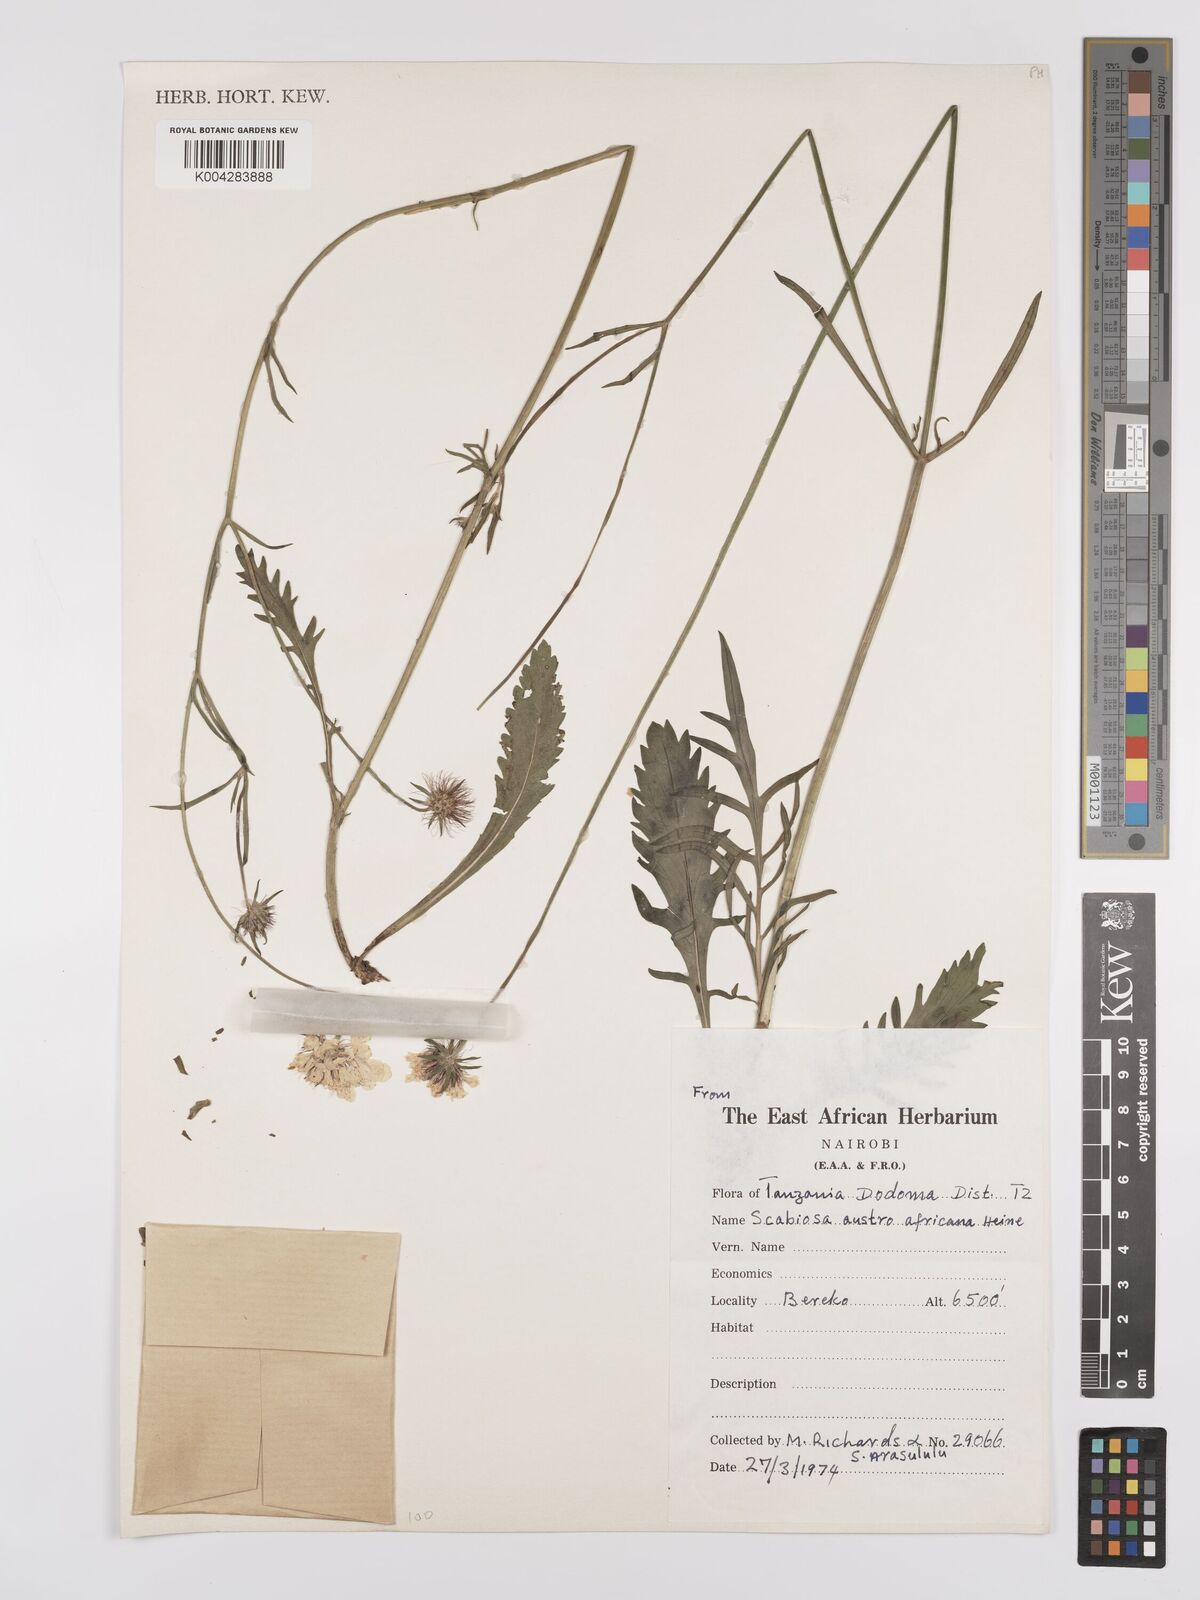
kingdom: Plantae
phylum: Tracheophyta
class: Magnoliopsida
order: Dipsacales
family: Caprifoliaceae
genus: Scabiosa
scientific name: Scabiosa austroafricana
